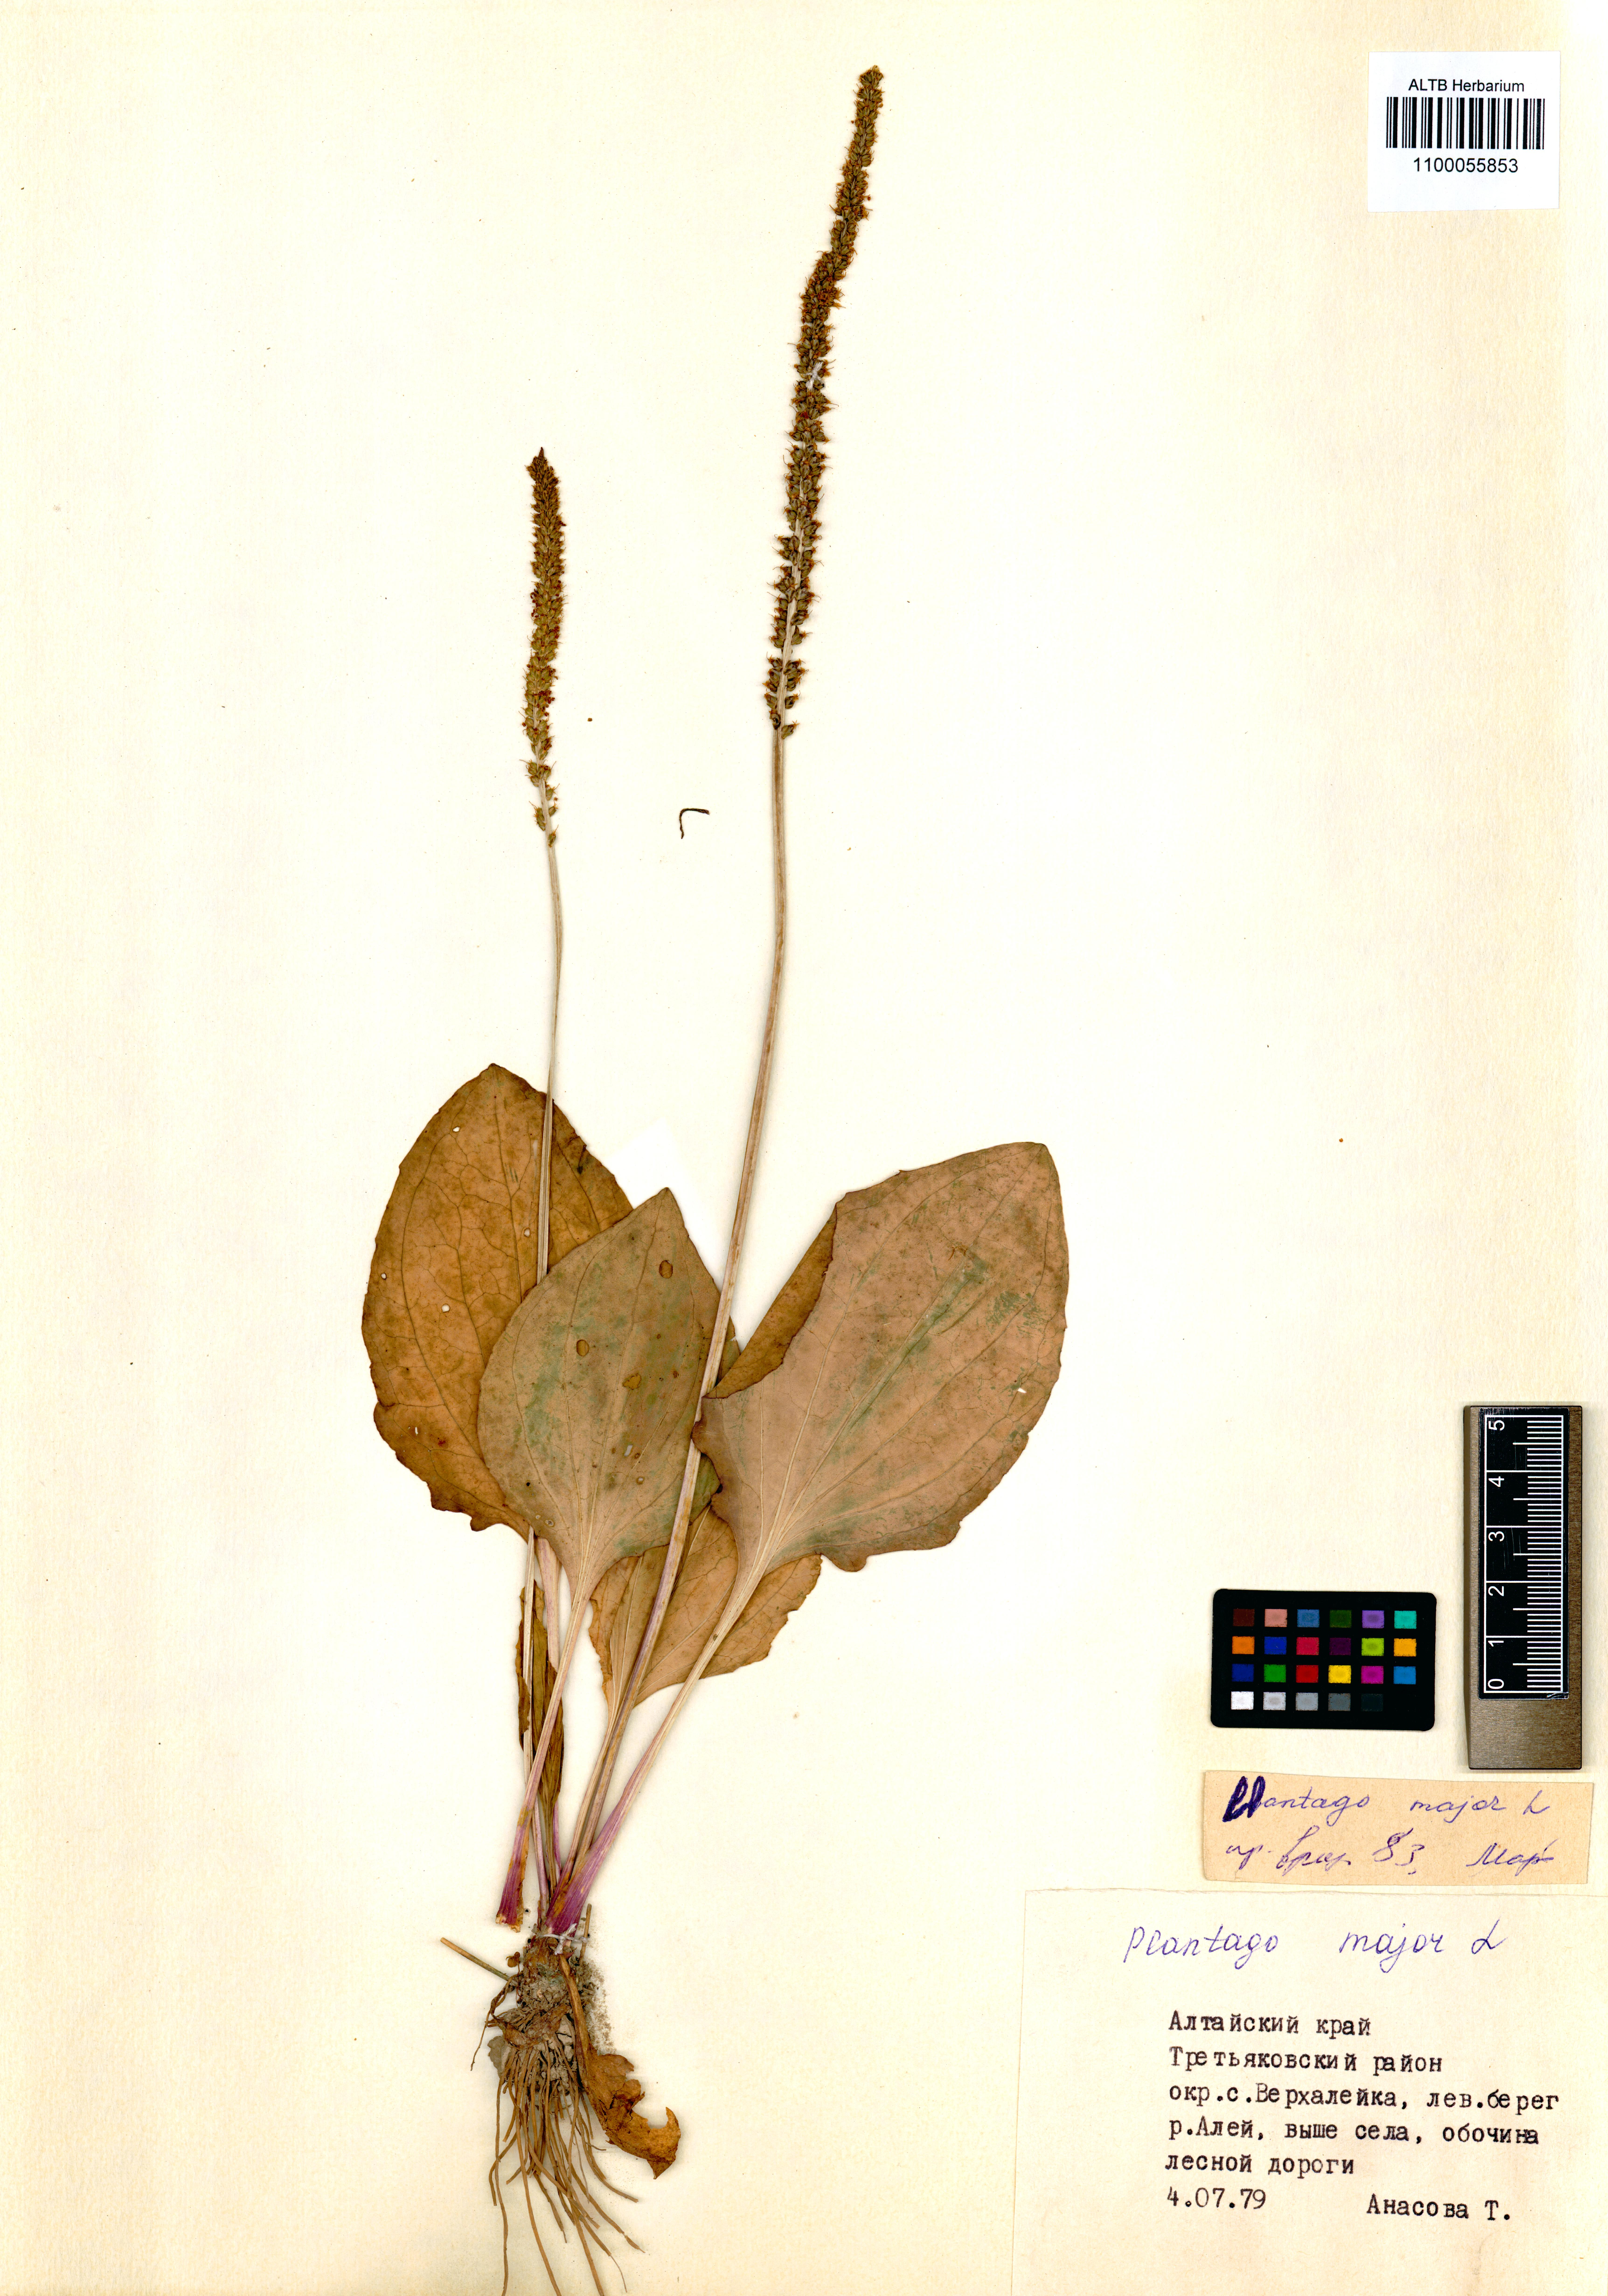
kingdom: Plantae
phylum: Tracheophyta
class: Magnoliopsida
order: Lamiales
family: Plantaginaceae
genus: Plantago
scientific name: Plantago major
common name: Common plantain
